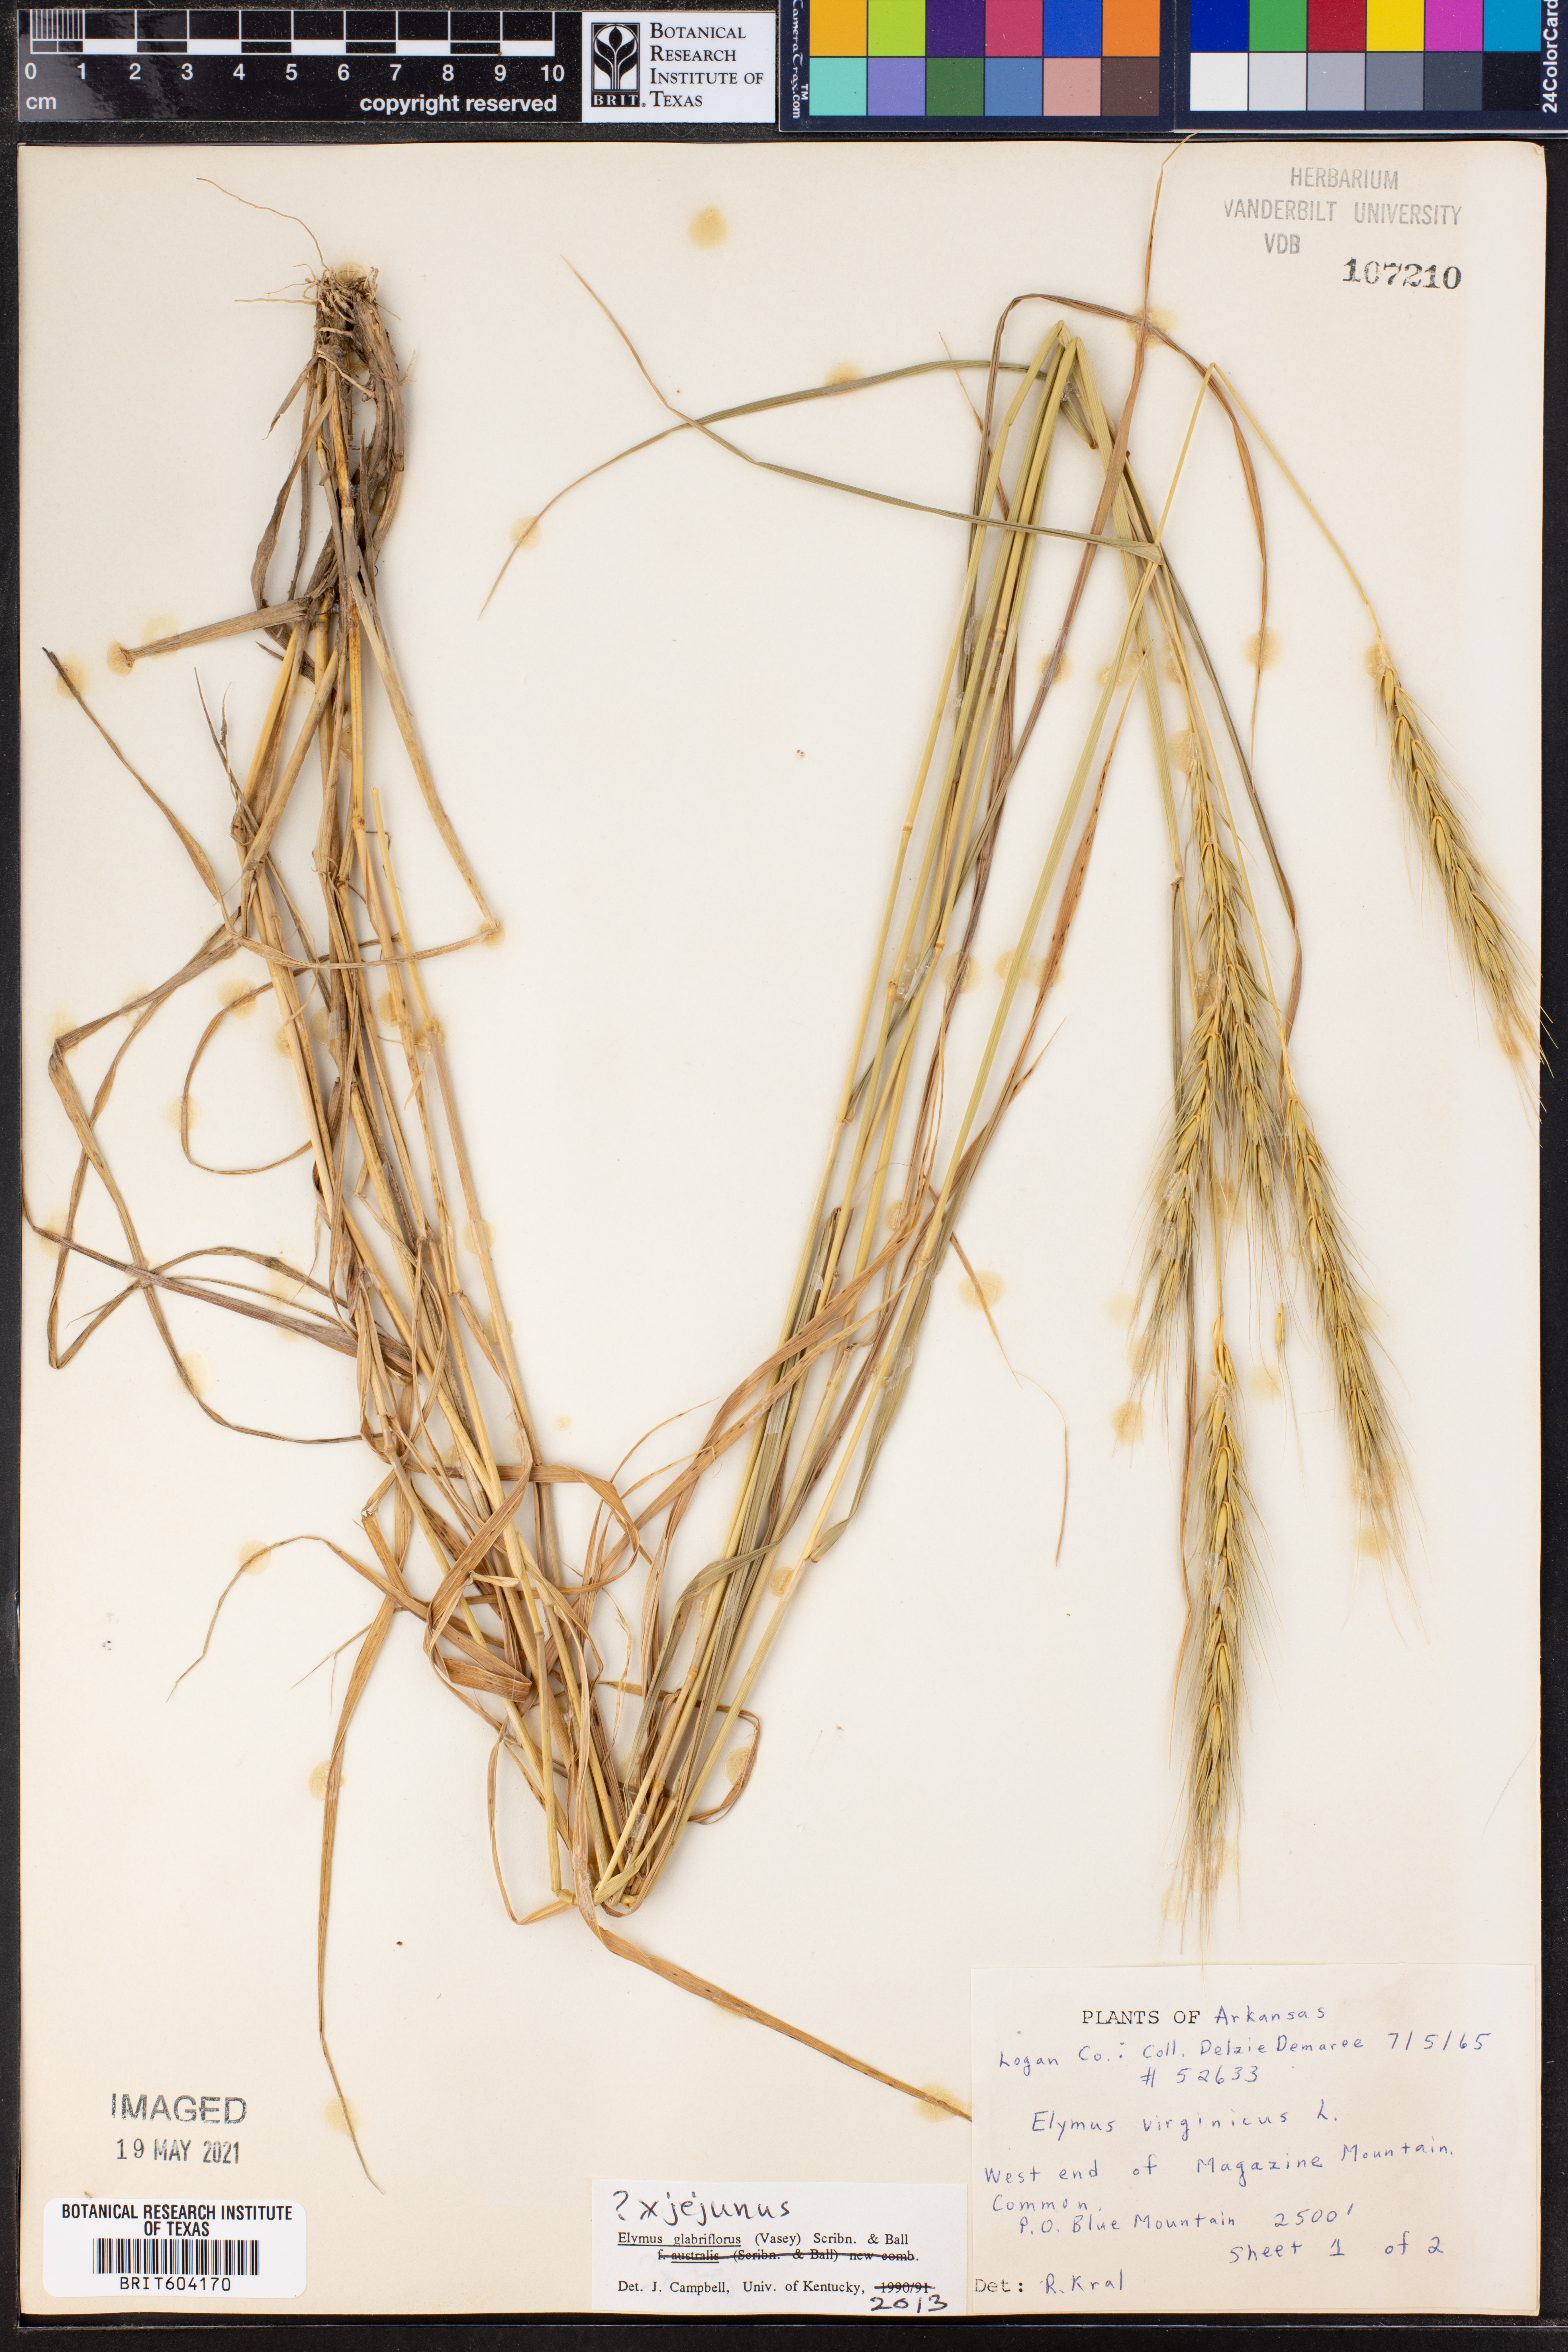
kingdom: Plantae
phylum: Tracheophyta
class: Liliopsida
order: Poales
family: Poaceae
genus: Elymus
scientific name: Elymus virginicus
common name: Common eastern wildrye
